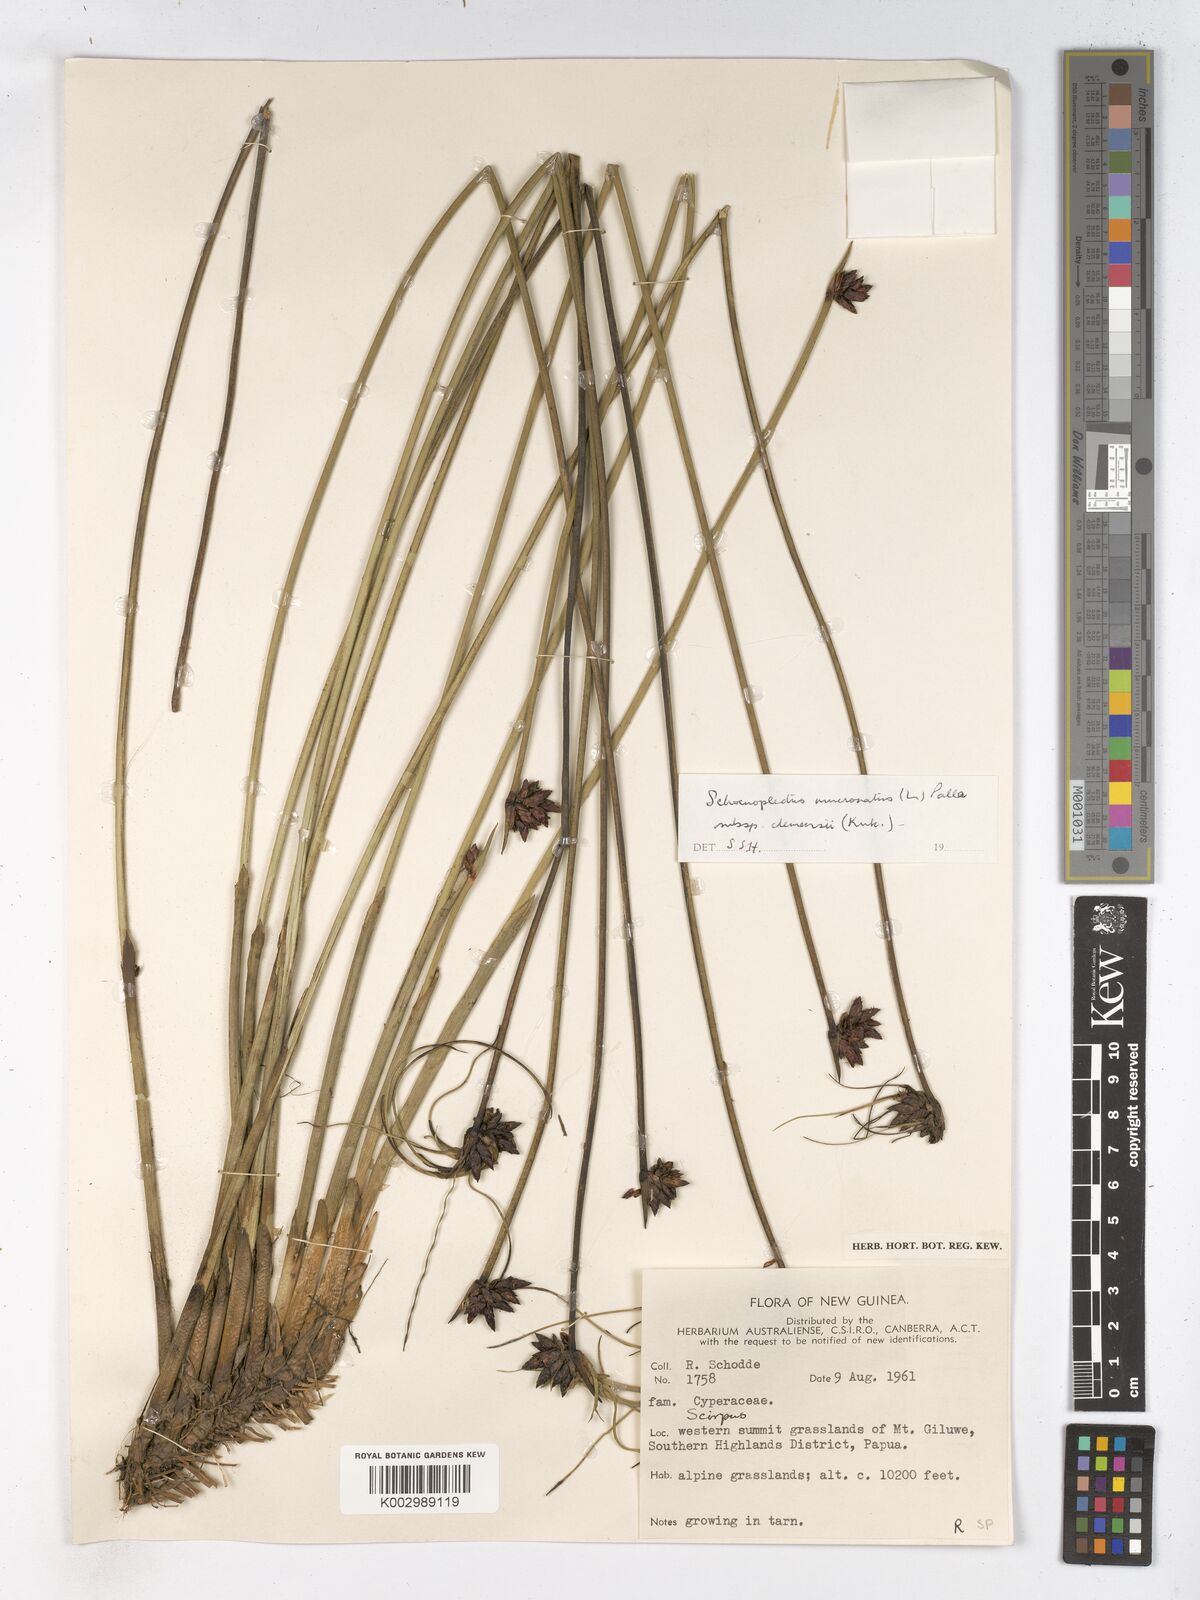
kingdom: Plantae
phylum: Tracheophyta
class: Liliopsida
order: Poales
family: Cyperaceae
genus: Schoenoplectiella
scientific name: Schoenoplectiella clemensiae
